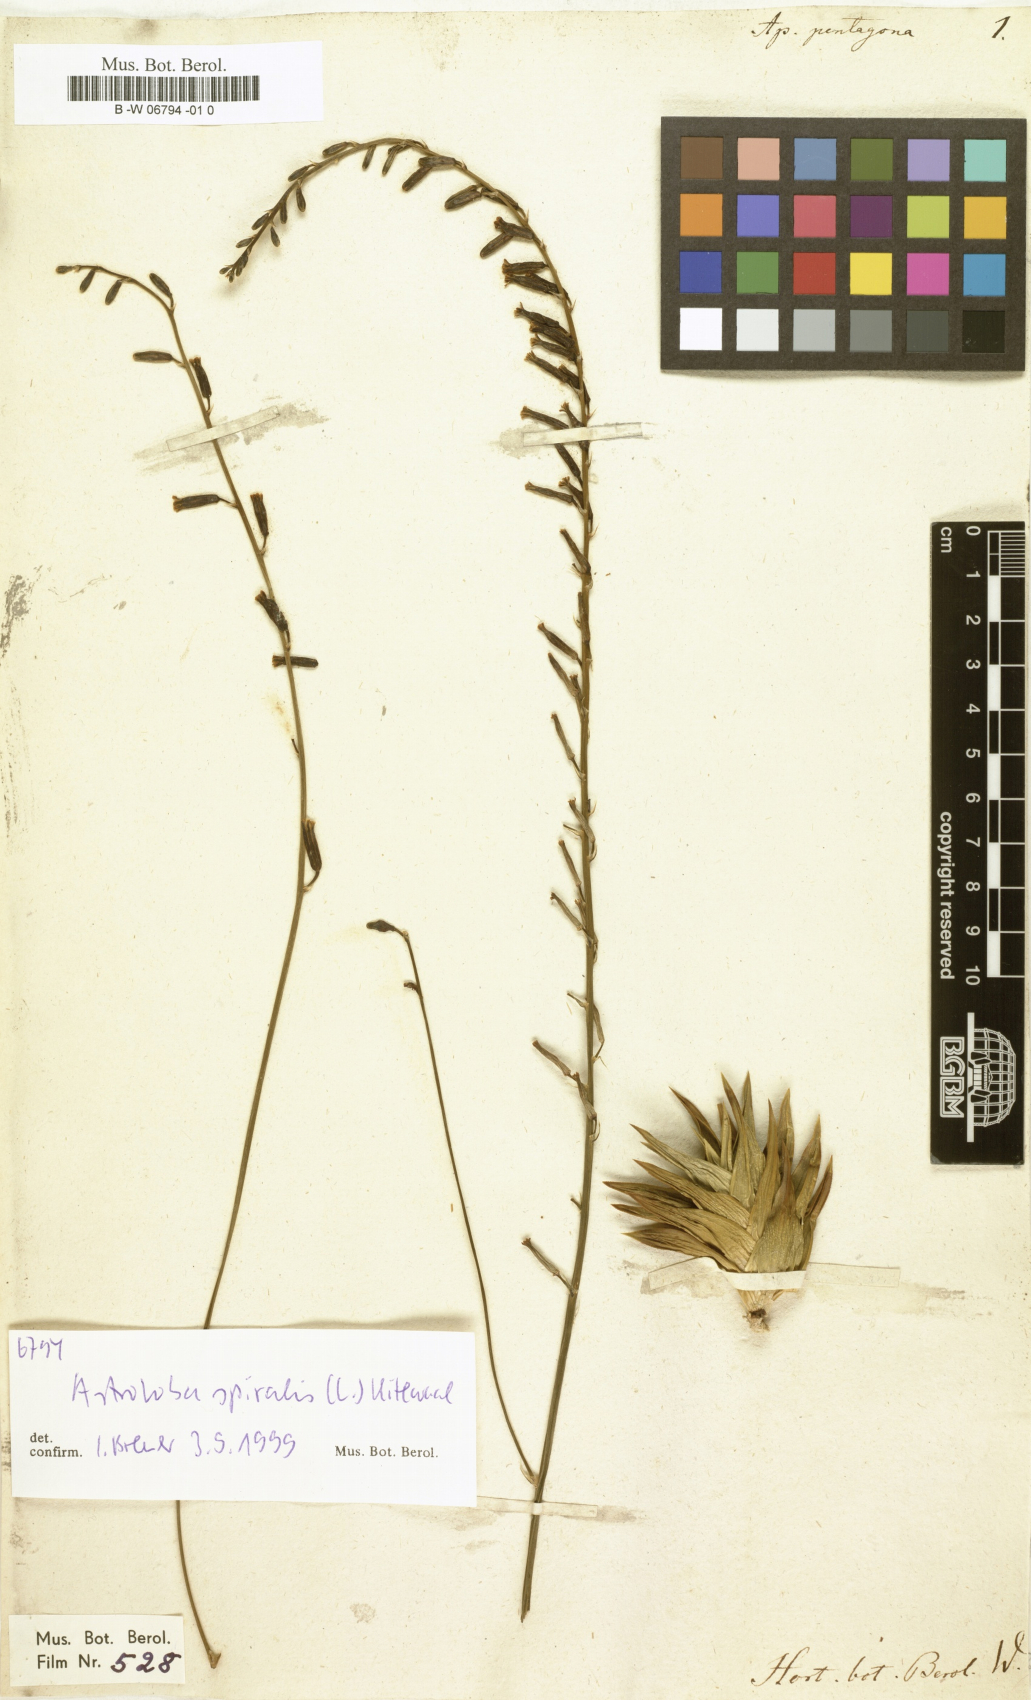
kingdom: Plantae
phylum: Tracheophyta
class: Liliopsida
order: Asparagales
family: Asphodelaceae
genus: Astroloba
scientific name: Astroloba pentagona
